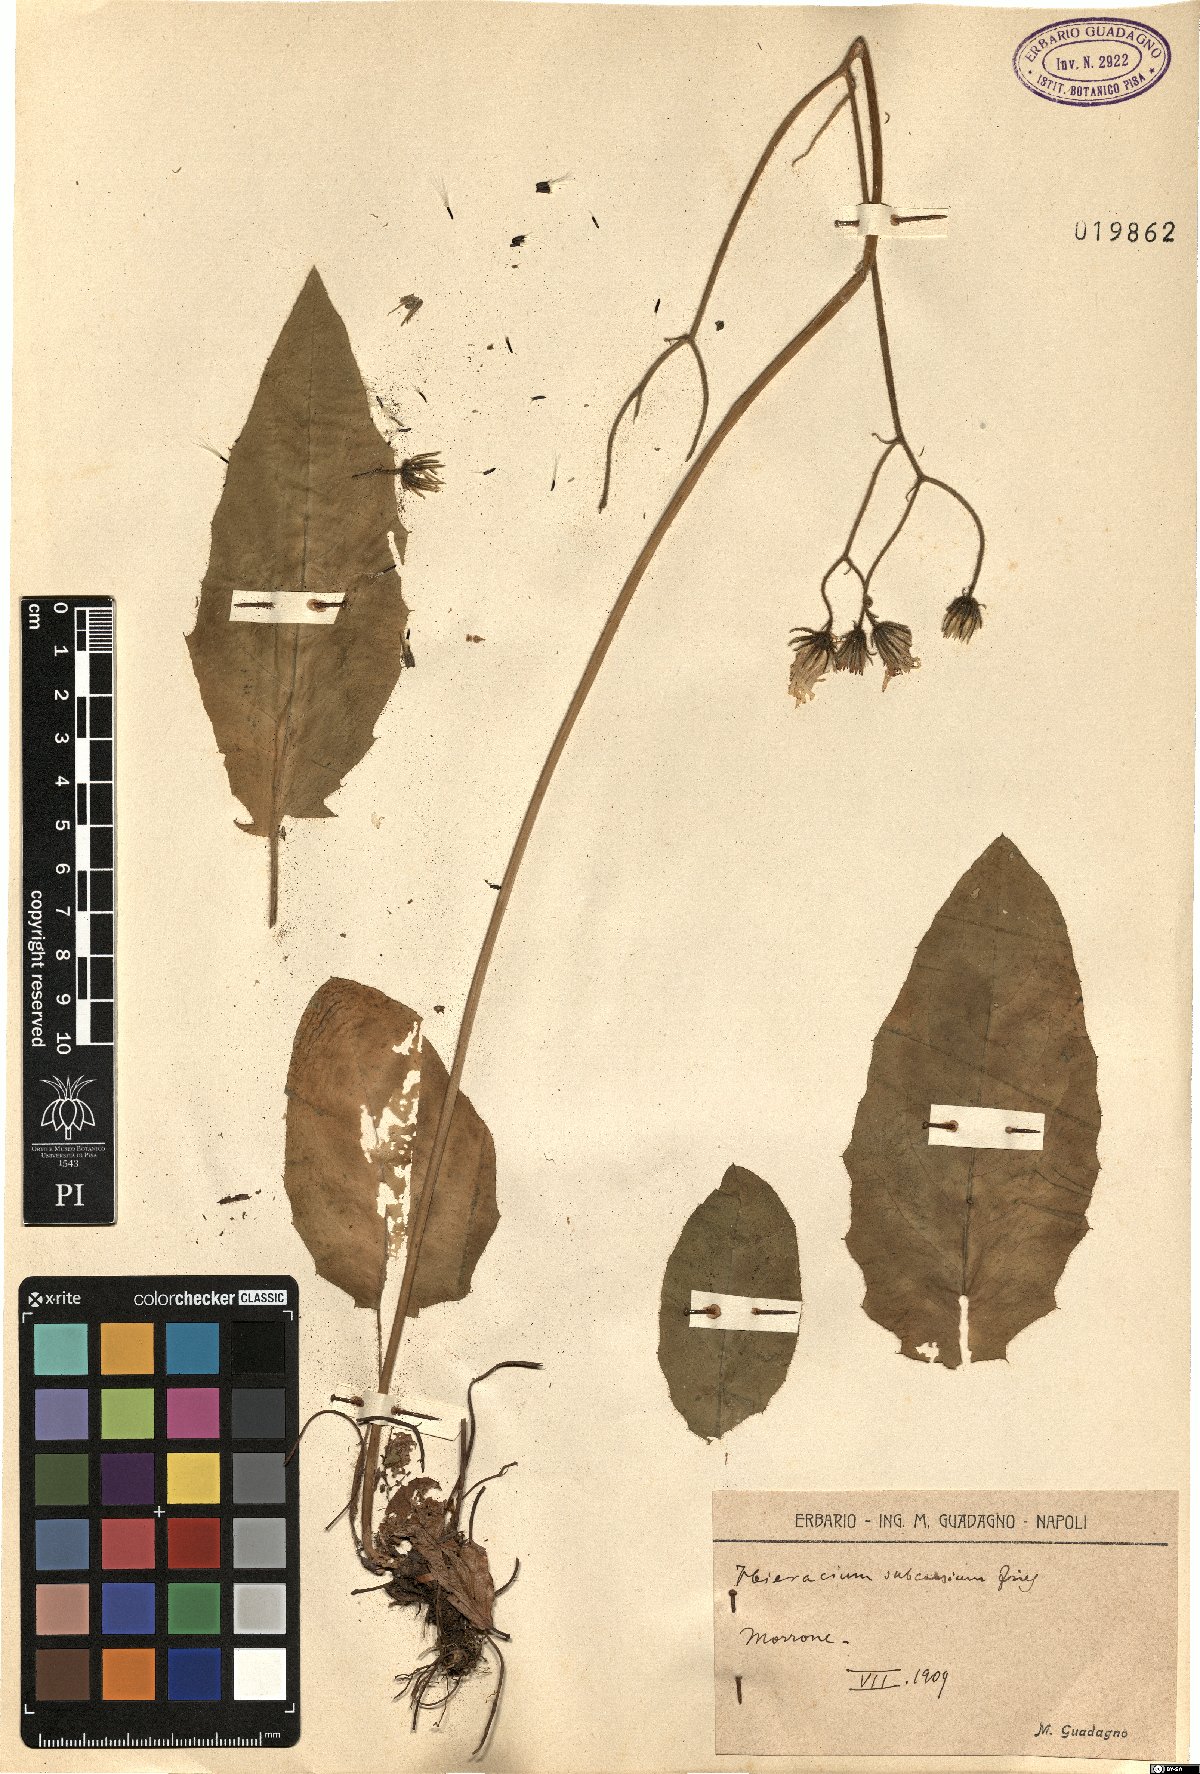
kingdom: Plantae
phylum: Tracheophyta
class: Magnoliopsida
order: Asterales
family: Asteraceae
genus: Hieracium
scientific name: Hieracium subcaesium
